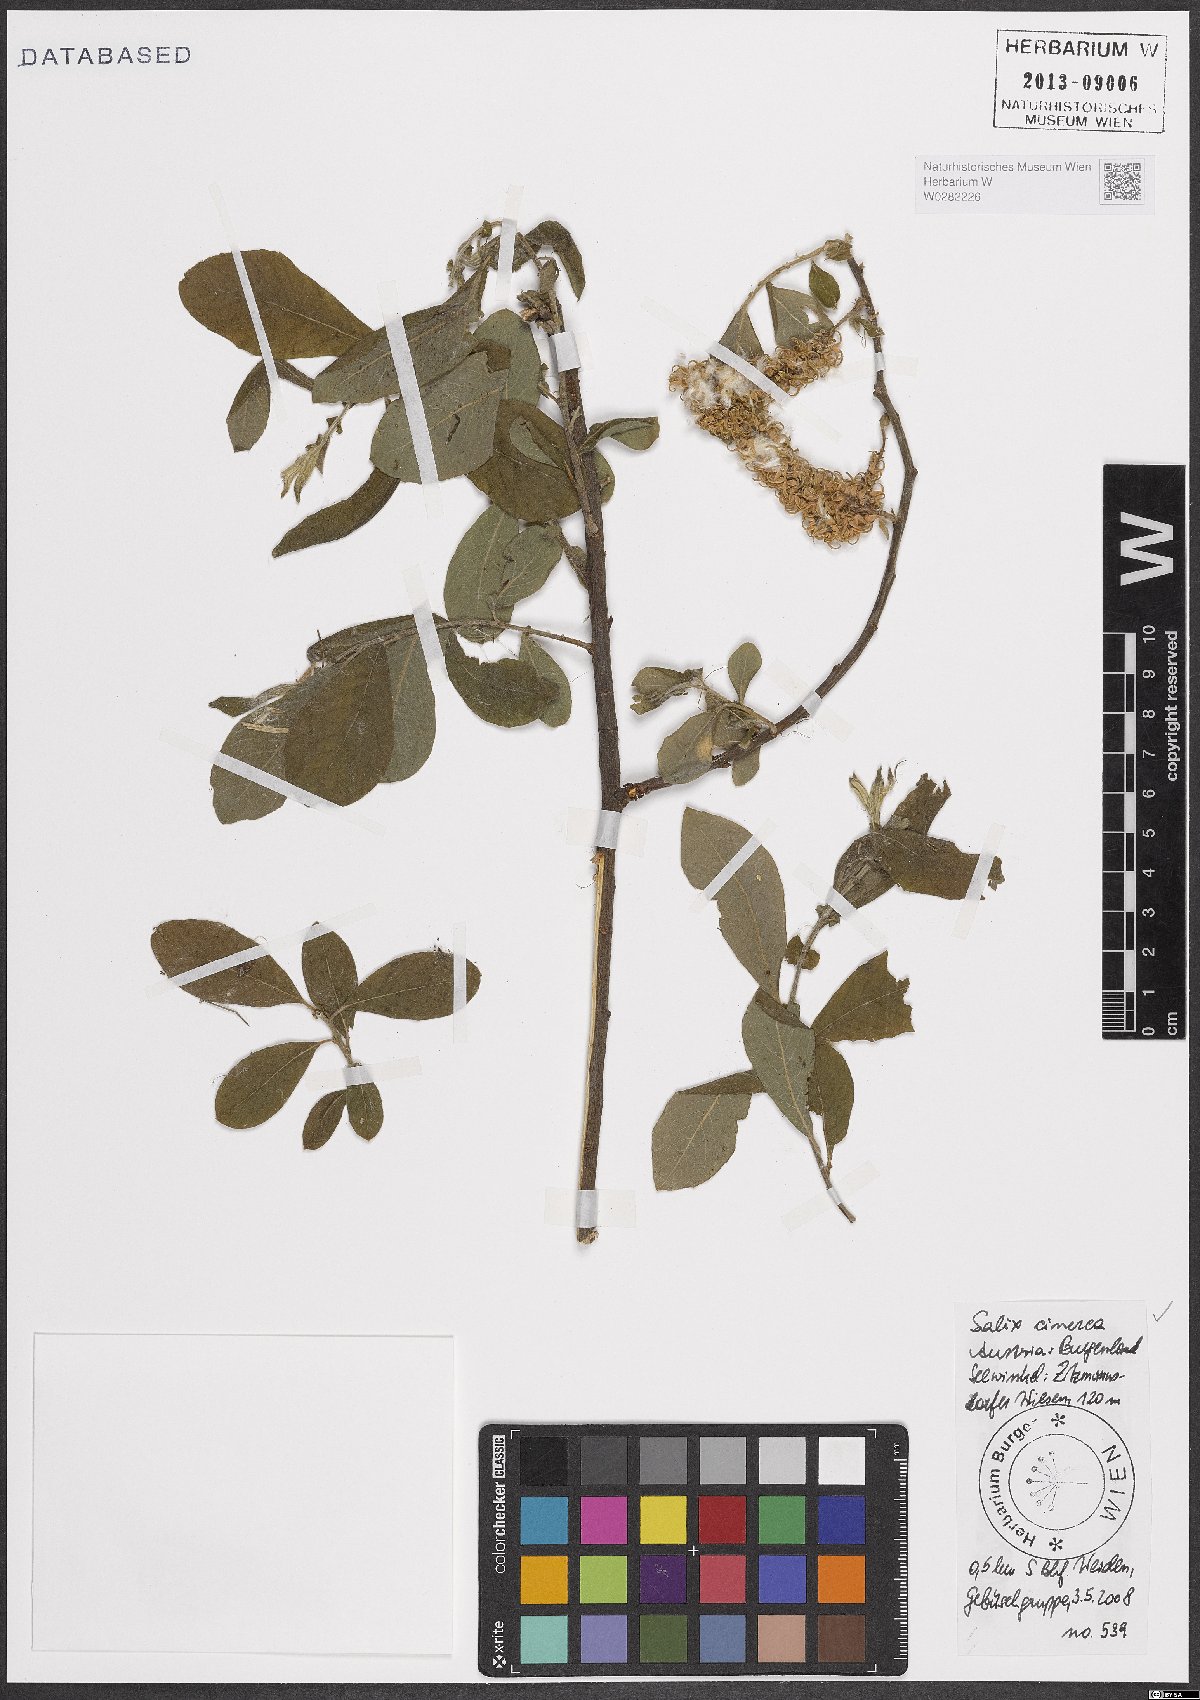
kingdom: Plantae
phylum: Tracheophyta
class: Magnoliopsida
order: Malpighiales
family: Salicaceae
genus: Salix
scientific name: Salix cinerea
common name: Common sallow
